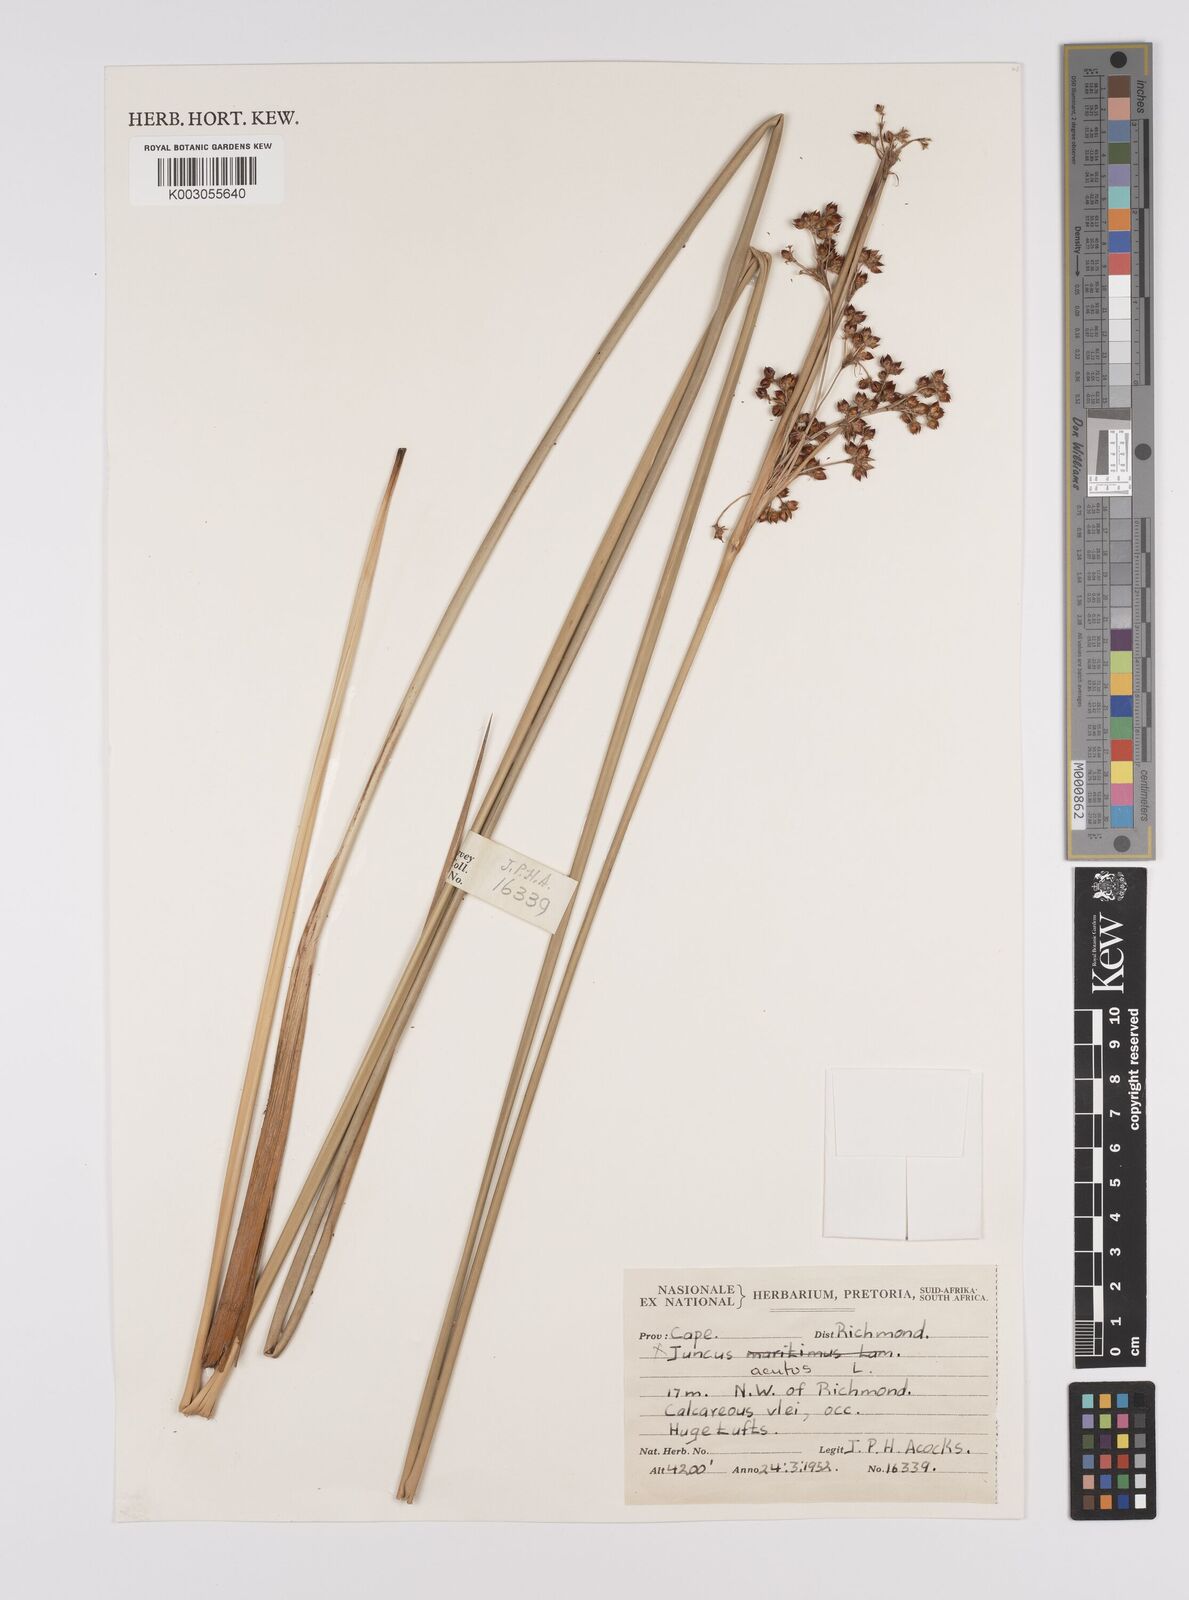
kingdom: Plantae
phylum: Tracheophyta
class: Liliopsida
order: Poales
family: Juncaceae
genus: Juncus
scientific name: Juncus acutus
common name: Sharp rush
